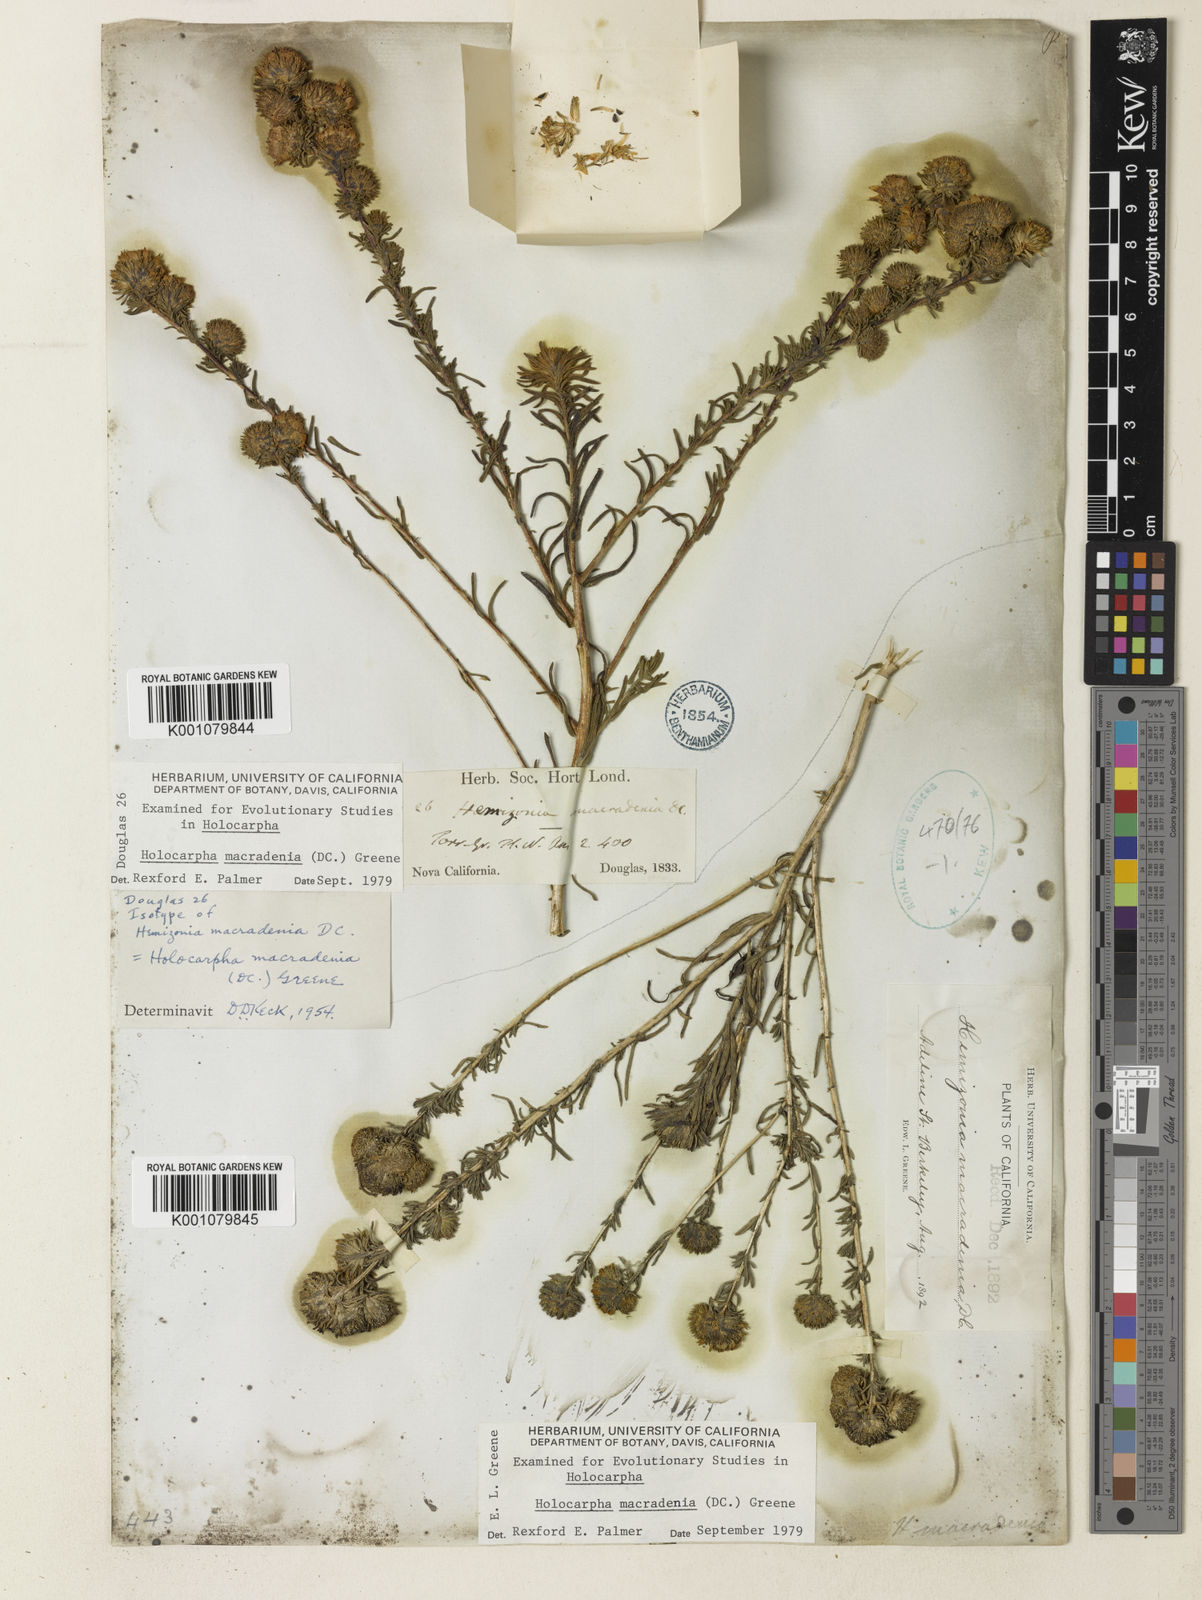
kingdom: Plantae
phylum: Tracheophyta
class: Magnoliopsida
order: Asterales
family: Asteraceae
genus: Holocarpha
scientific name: Holocarpha macradenia
